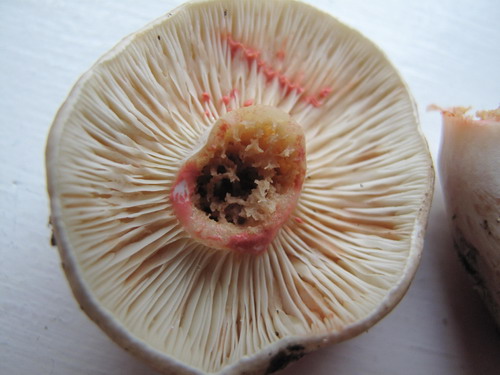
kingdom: Fungi
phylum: Basidiomycota
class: Agaricomycetes
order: Russulales
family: Russulaceae
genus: Lactarius
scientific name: Lactarius acris
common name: rosamælket mælkehat
